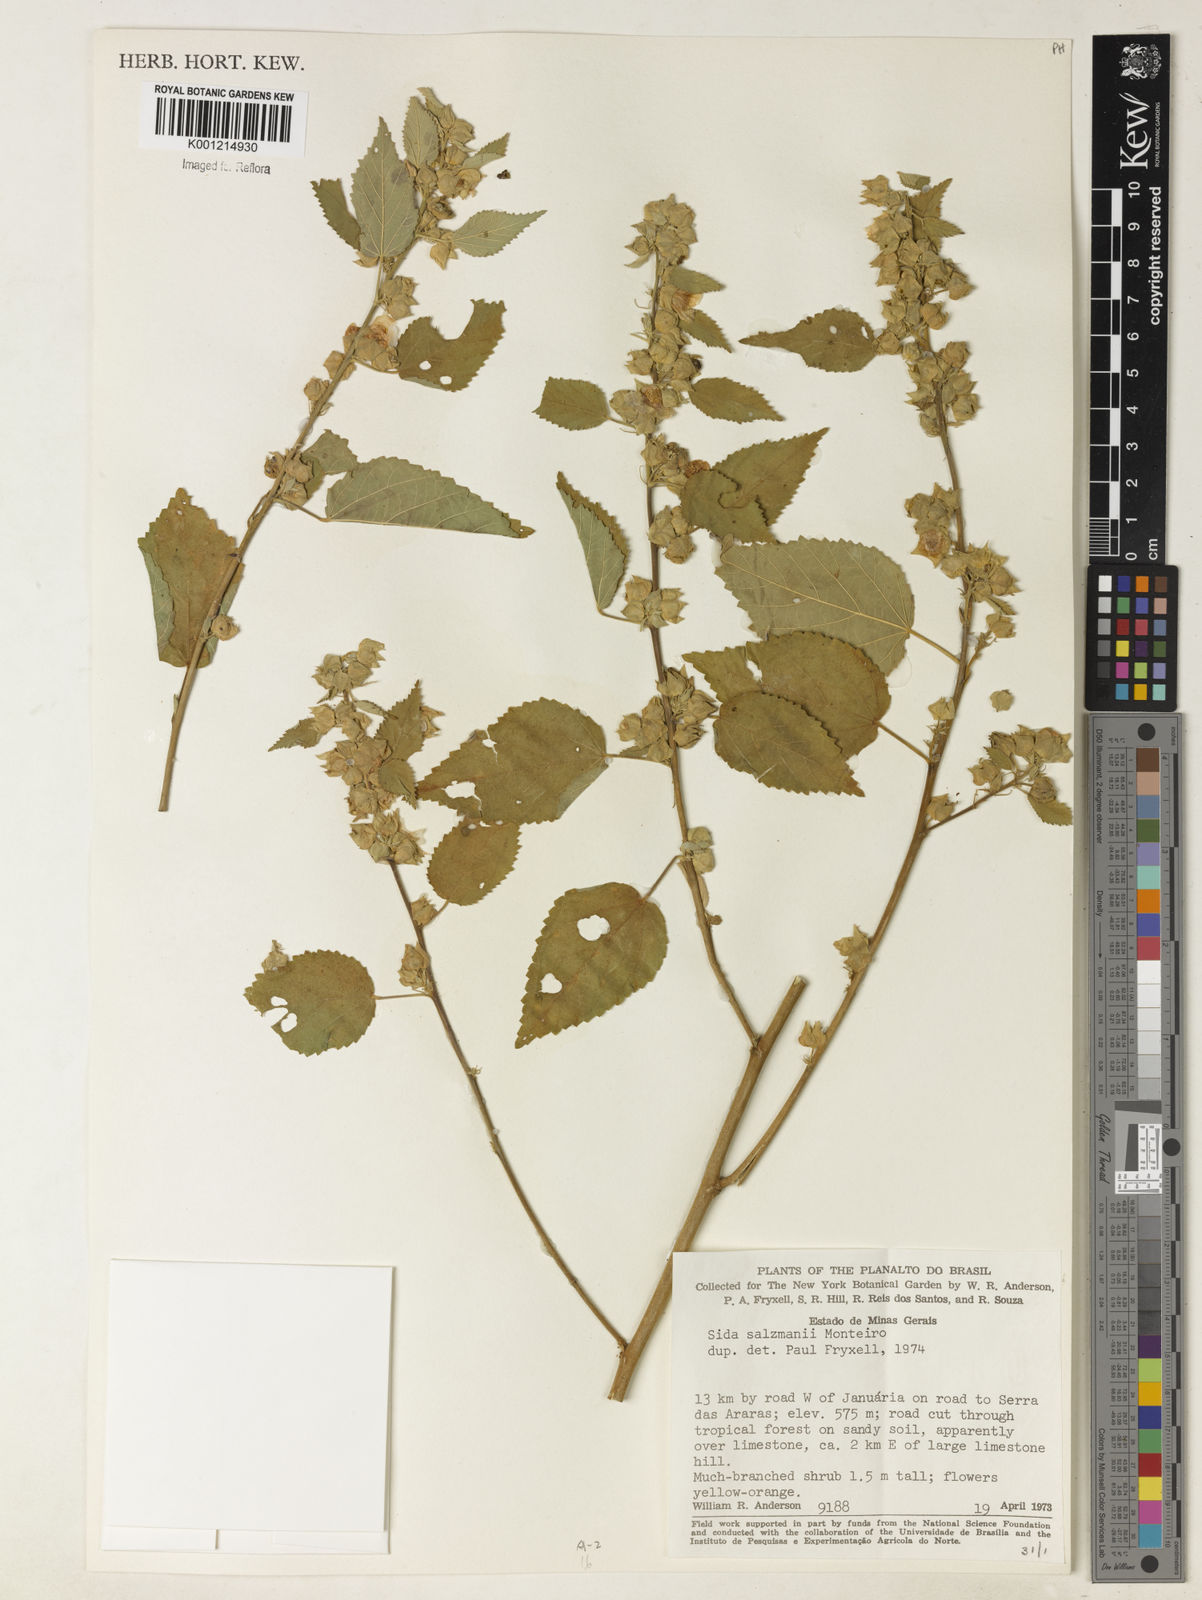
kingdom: Plantae
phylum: Tracheophyta
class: Magnoliopsida
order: Malvales
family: Malvaceae
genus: Sida
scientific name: Sida ulei
